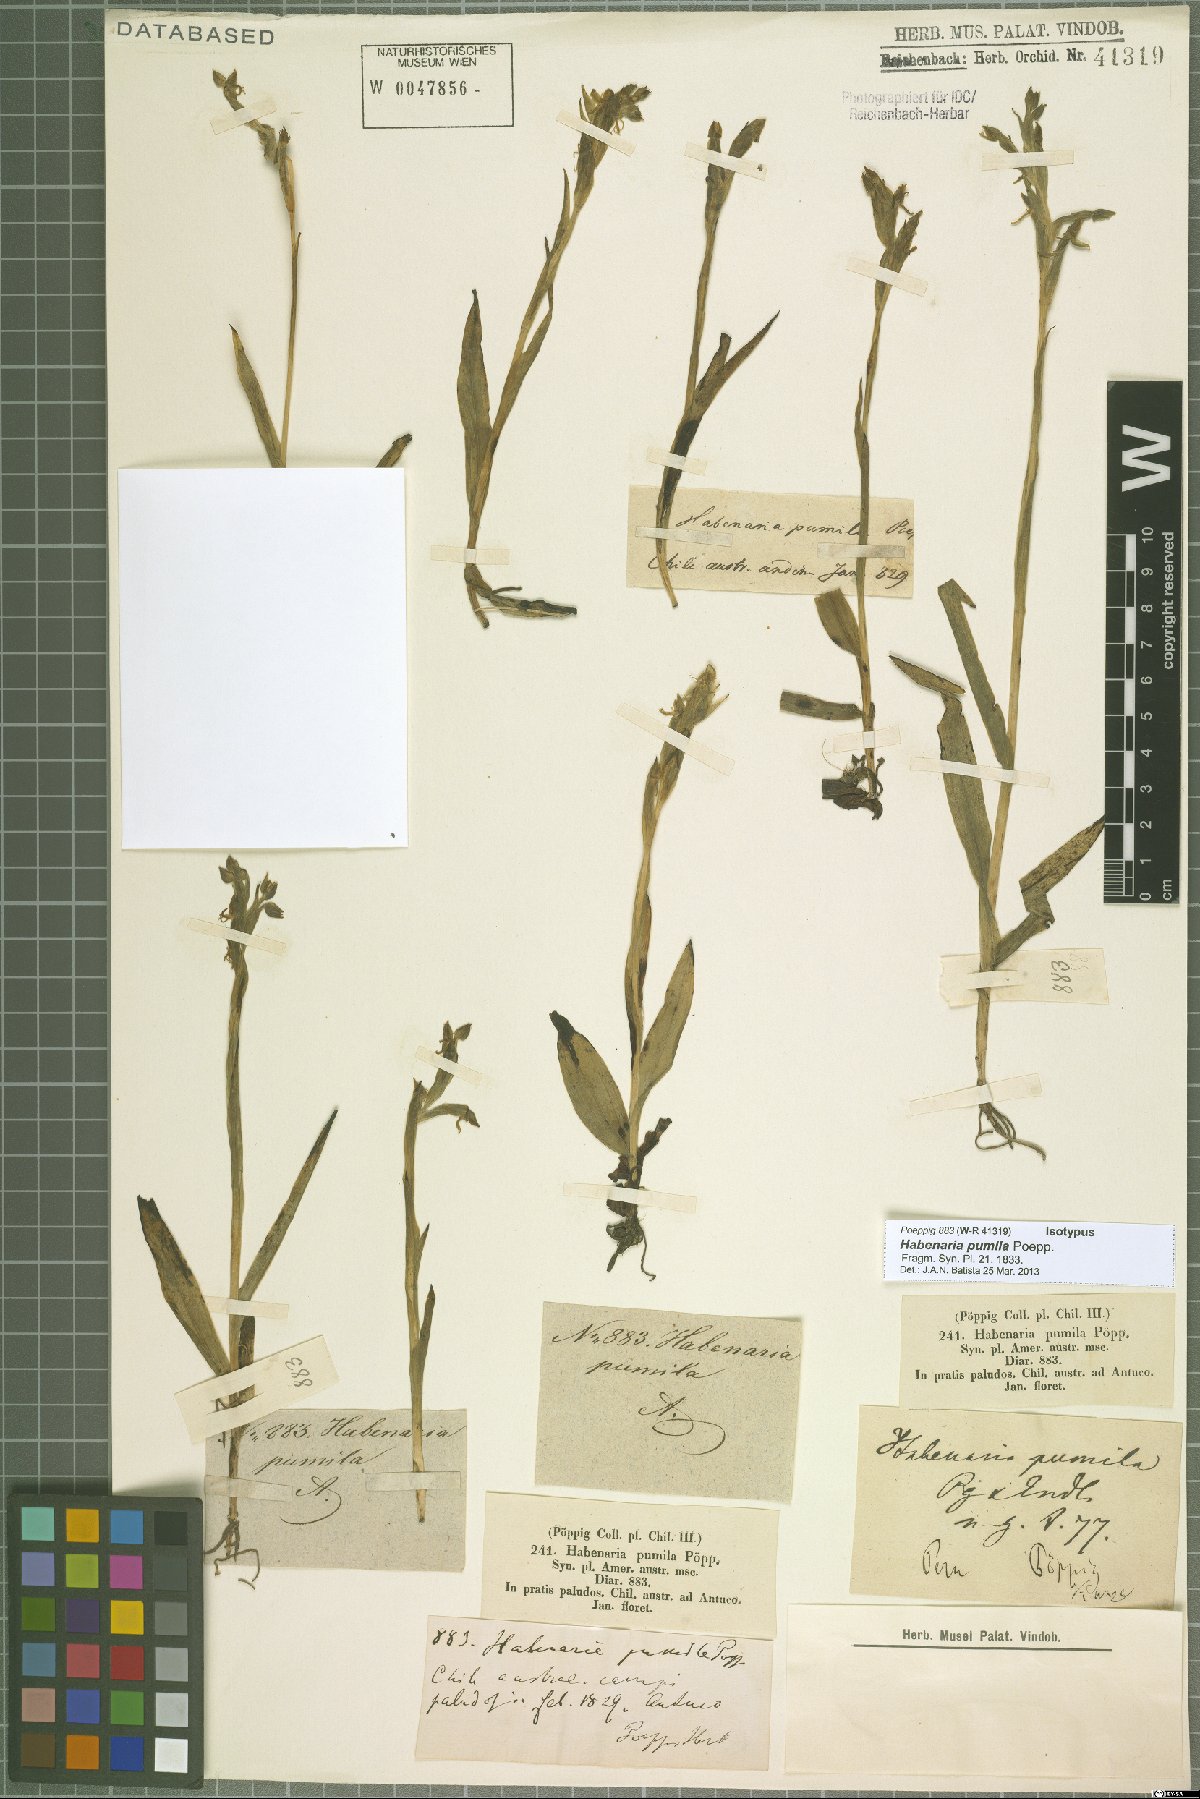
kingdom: Plantae
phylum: Tracheophyta
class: Liliopsida
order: Asparagales
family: Orchidaceae
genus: Habenaria
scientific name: Habenaria pumila
